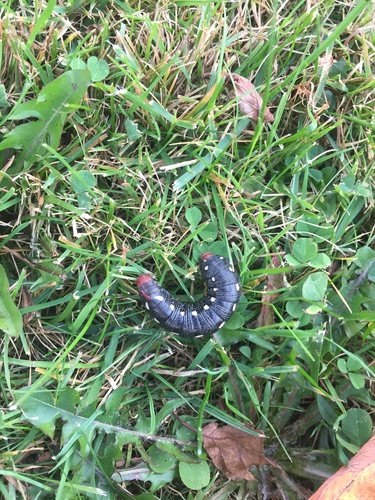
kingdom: Animalia
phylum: Arthropoda
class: Insecta
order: Lepidoptera
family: Sphingidae
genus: Hyles
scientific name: Hyles gallii
